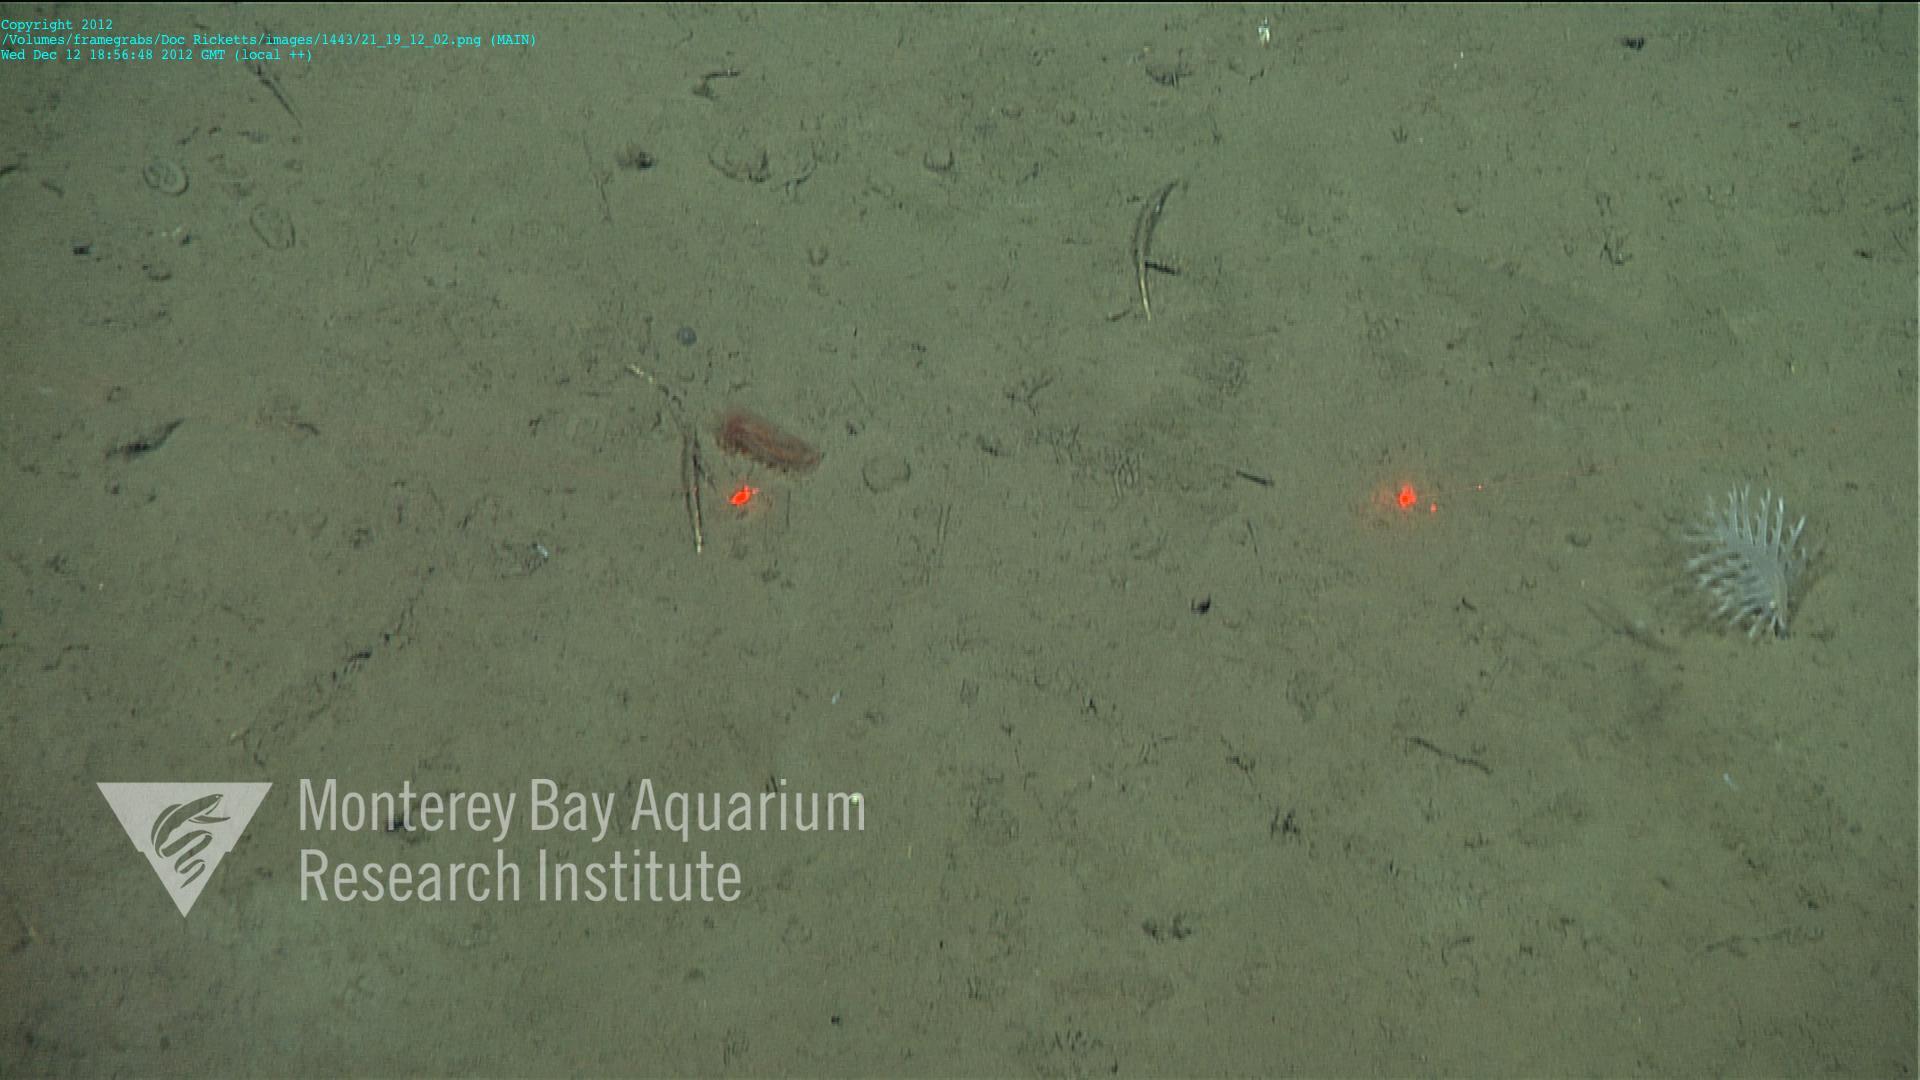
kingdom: Animalia
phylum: Cnidaria
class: Anthozoa
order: Scleralcyonacea
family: Pennatulidae
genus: Pennatula
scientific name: Pennatula
